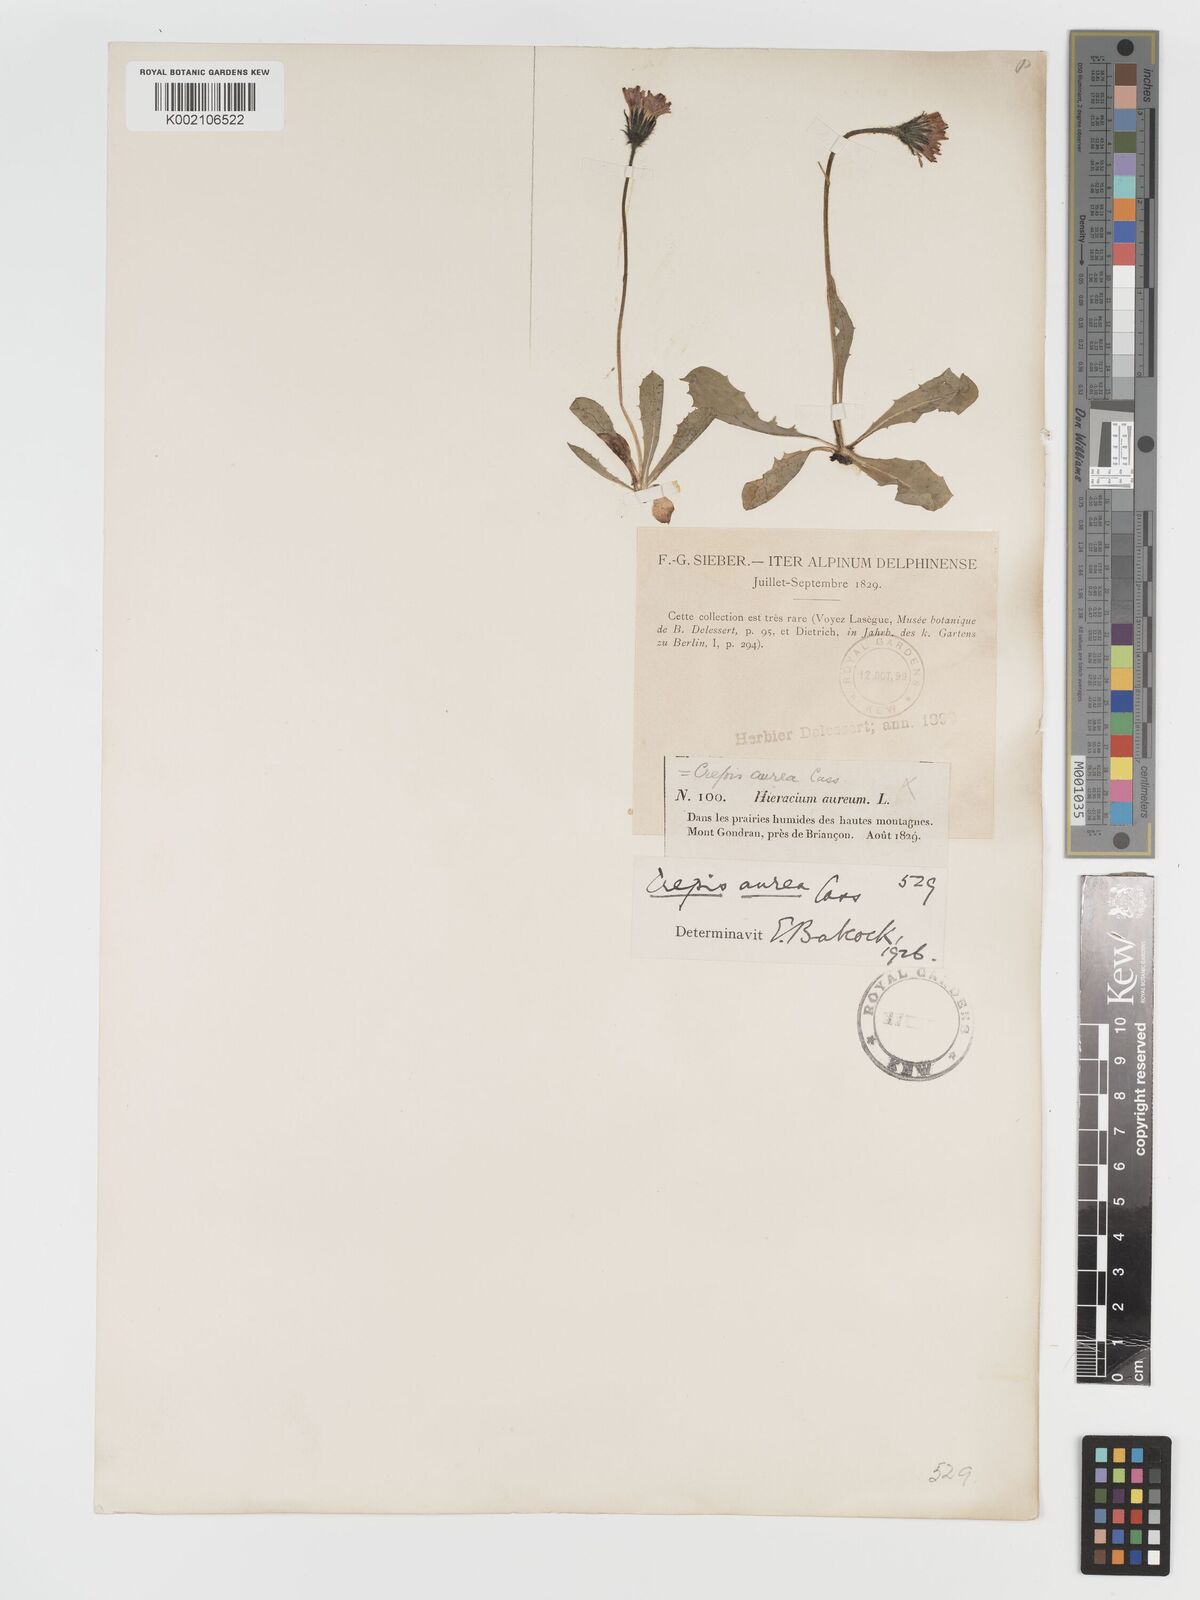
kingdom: Plantae
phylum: Tracheophyta
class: Magnoliopsida
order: Asterales
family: Asteraceae
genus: Crepis
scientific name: Crepis aurea
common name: Golden hawk's-beard
